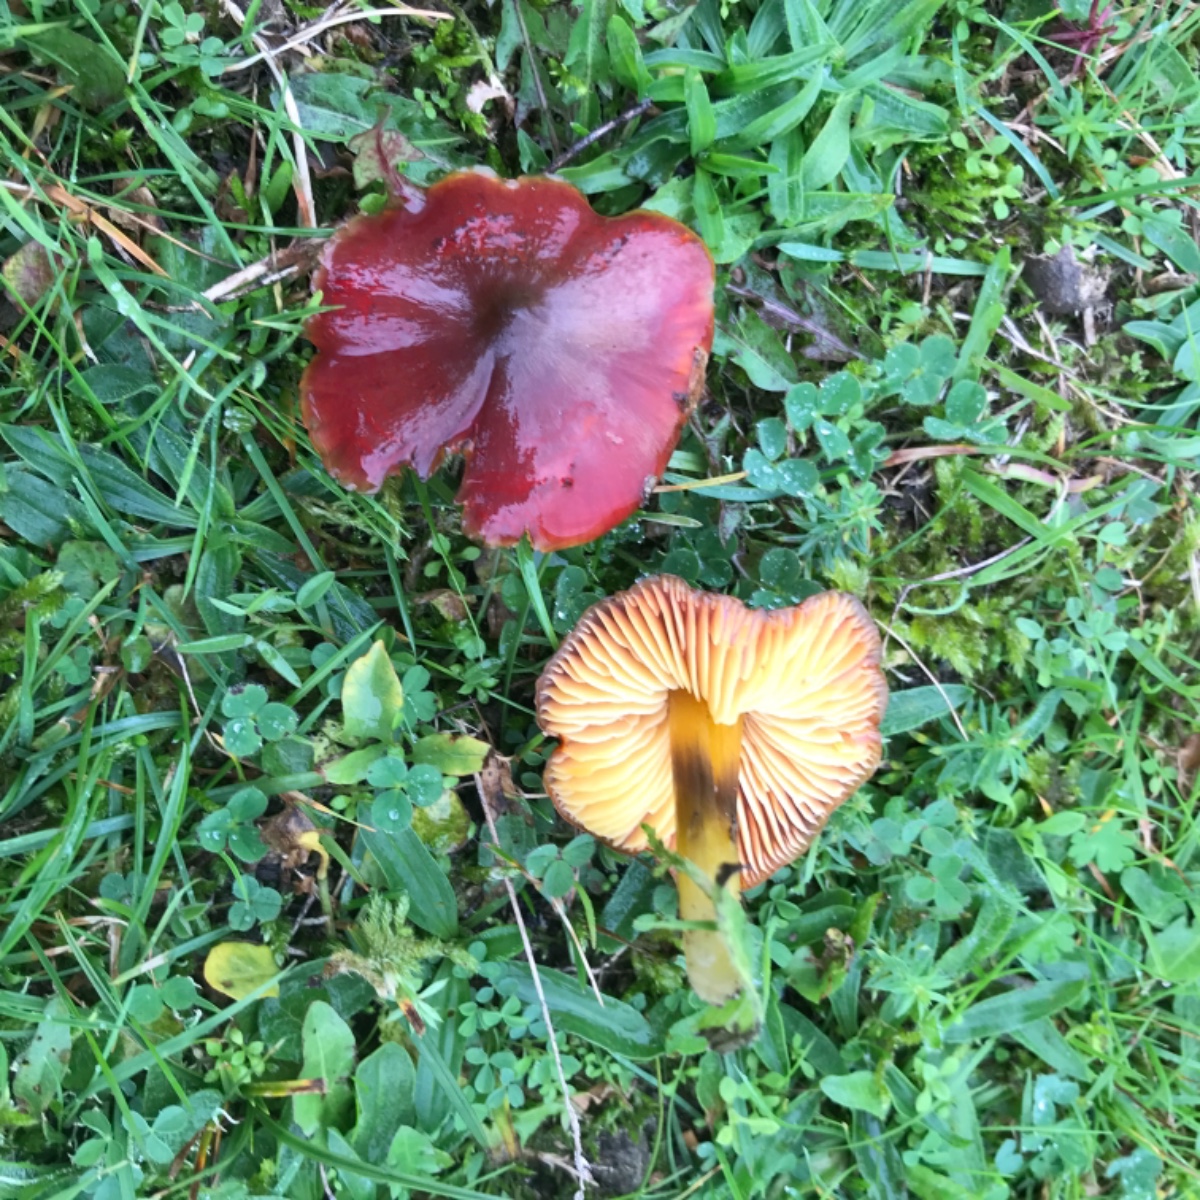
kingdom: Fungi
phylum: Basidiomycota
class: Agaricomycetes
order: Agaricales
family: Hygrophoraceae
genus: Hygrocybe
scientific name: Hygrocybe conica
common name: kegle-vokshat
